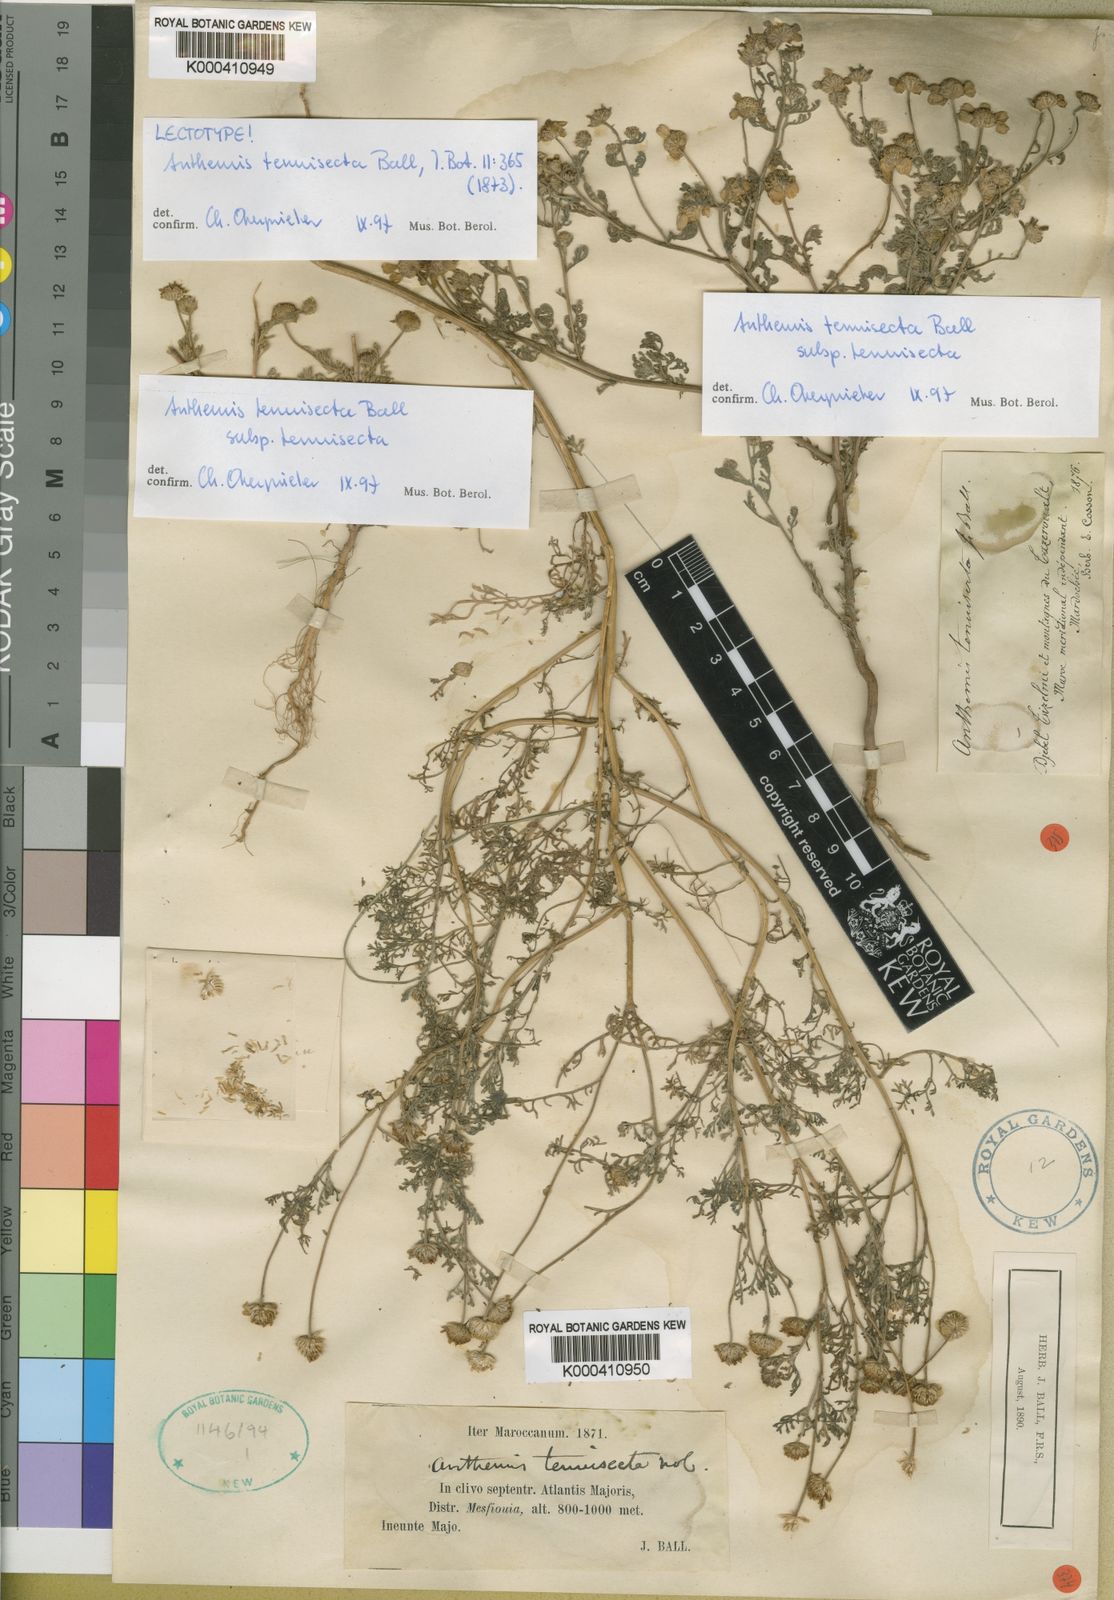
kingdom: Plantae
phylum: Tracheophyta
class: Magnoliopsida
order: Asterales
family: Asteraceae
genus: Anthemis
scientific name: Anthemis tenuisecta
